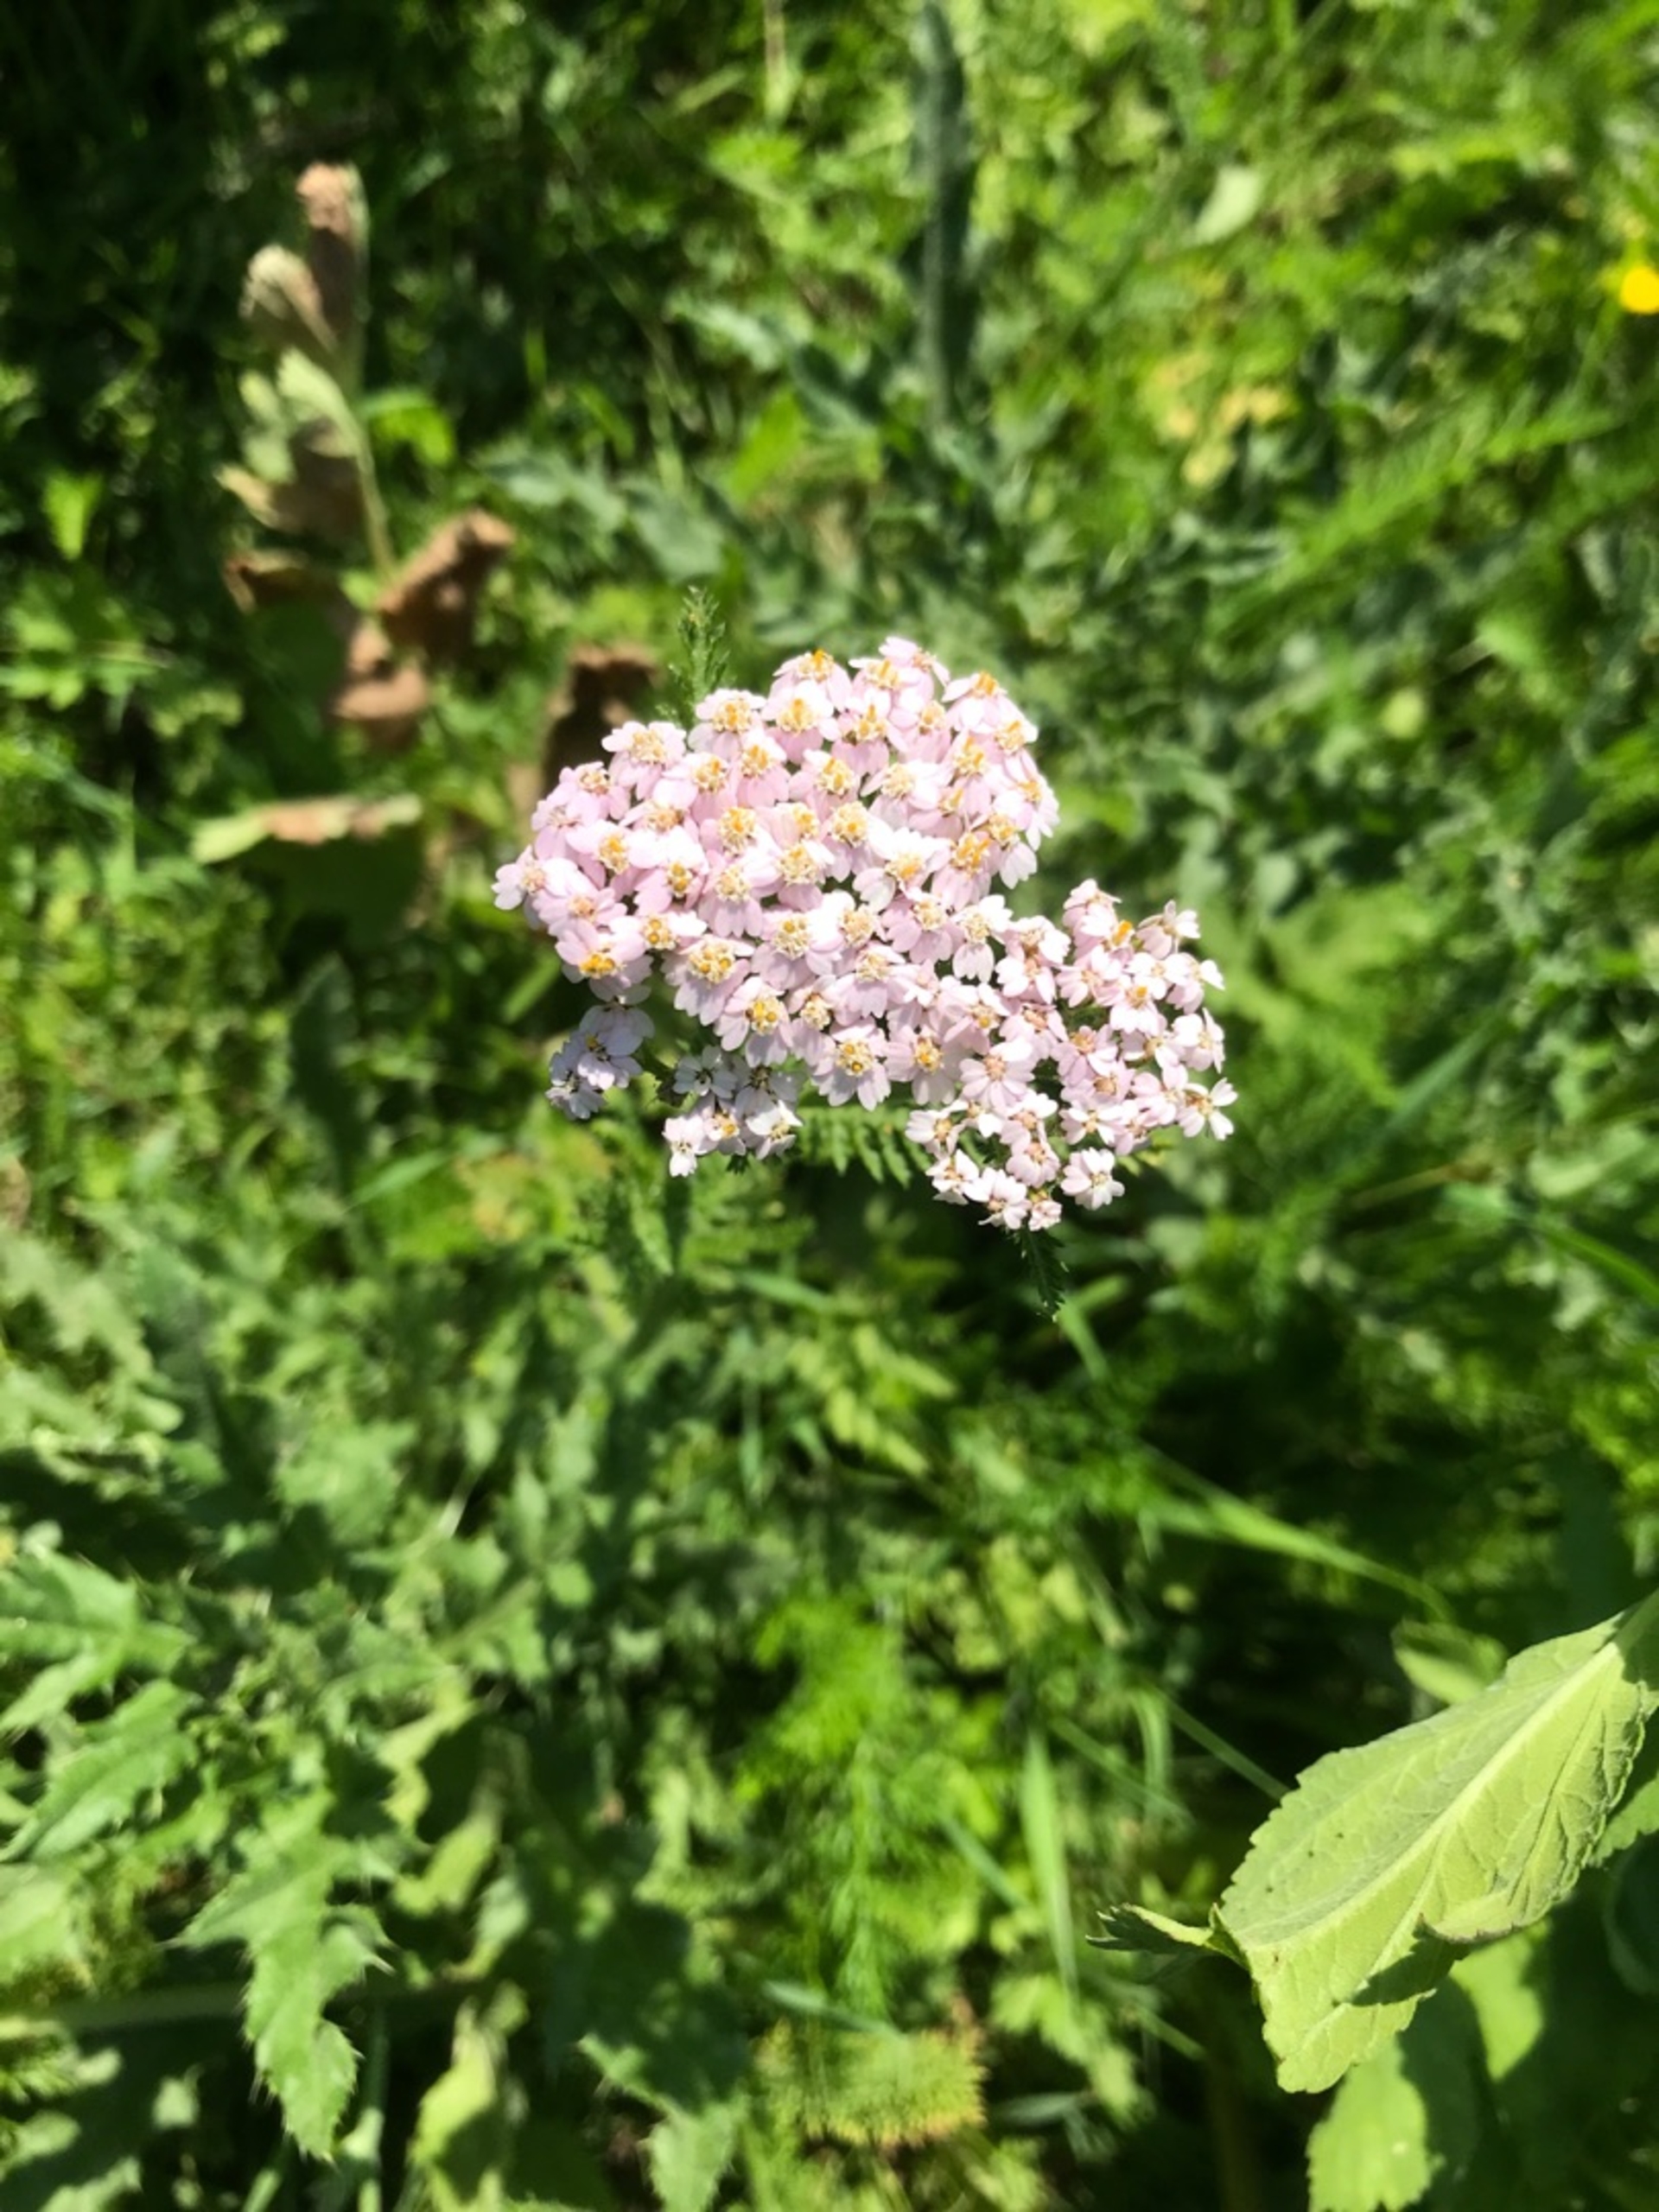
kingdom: Plantae
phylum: Tracheophyta
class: Magnoliopsida
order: Asterales
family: Asteraceae
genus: Achillea
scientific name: Achillea millefolium
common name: Almindelig røllike
